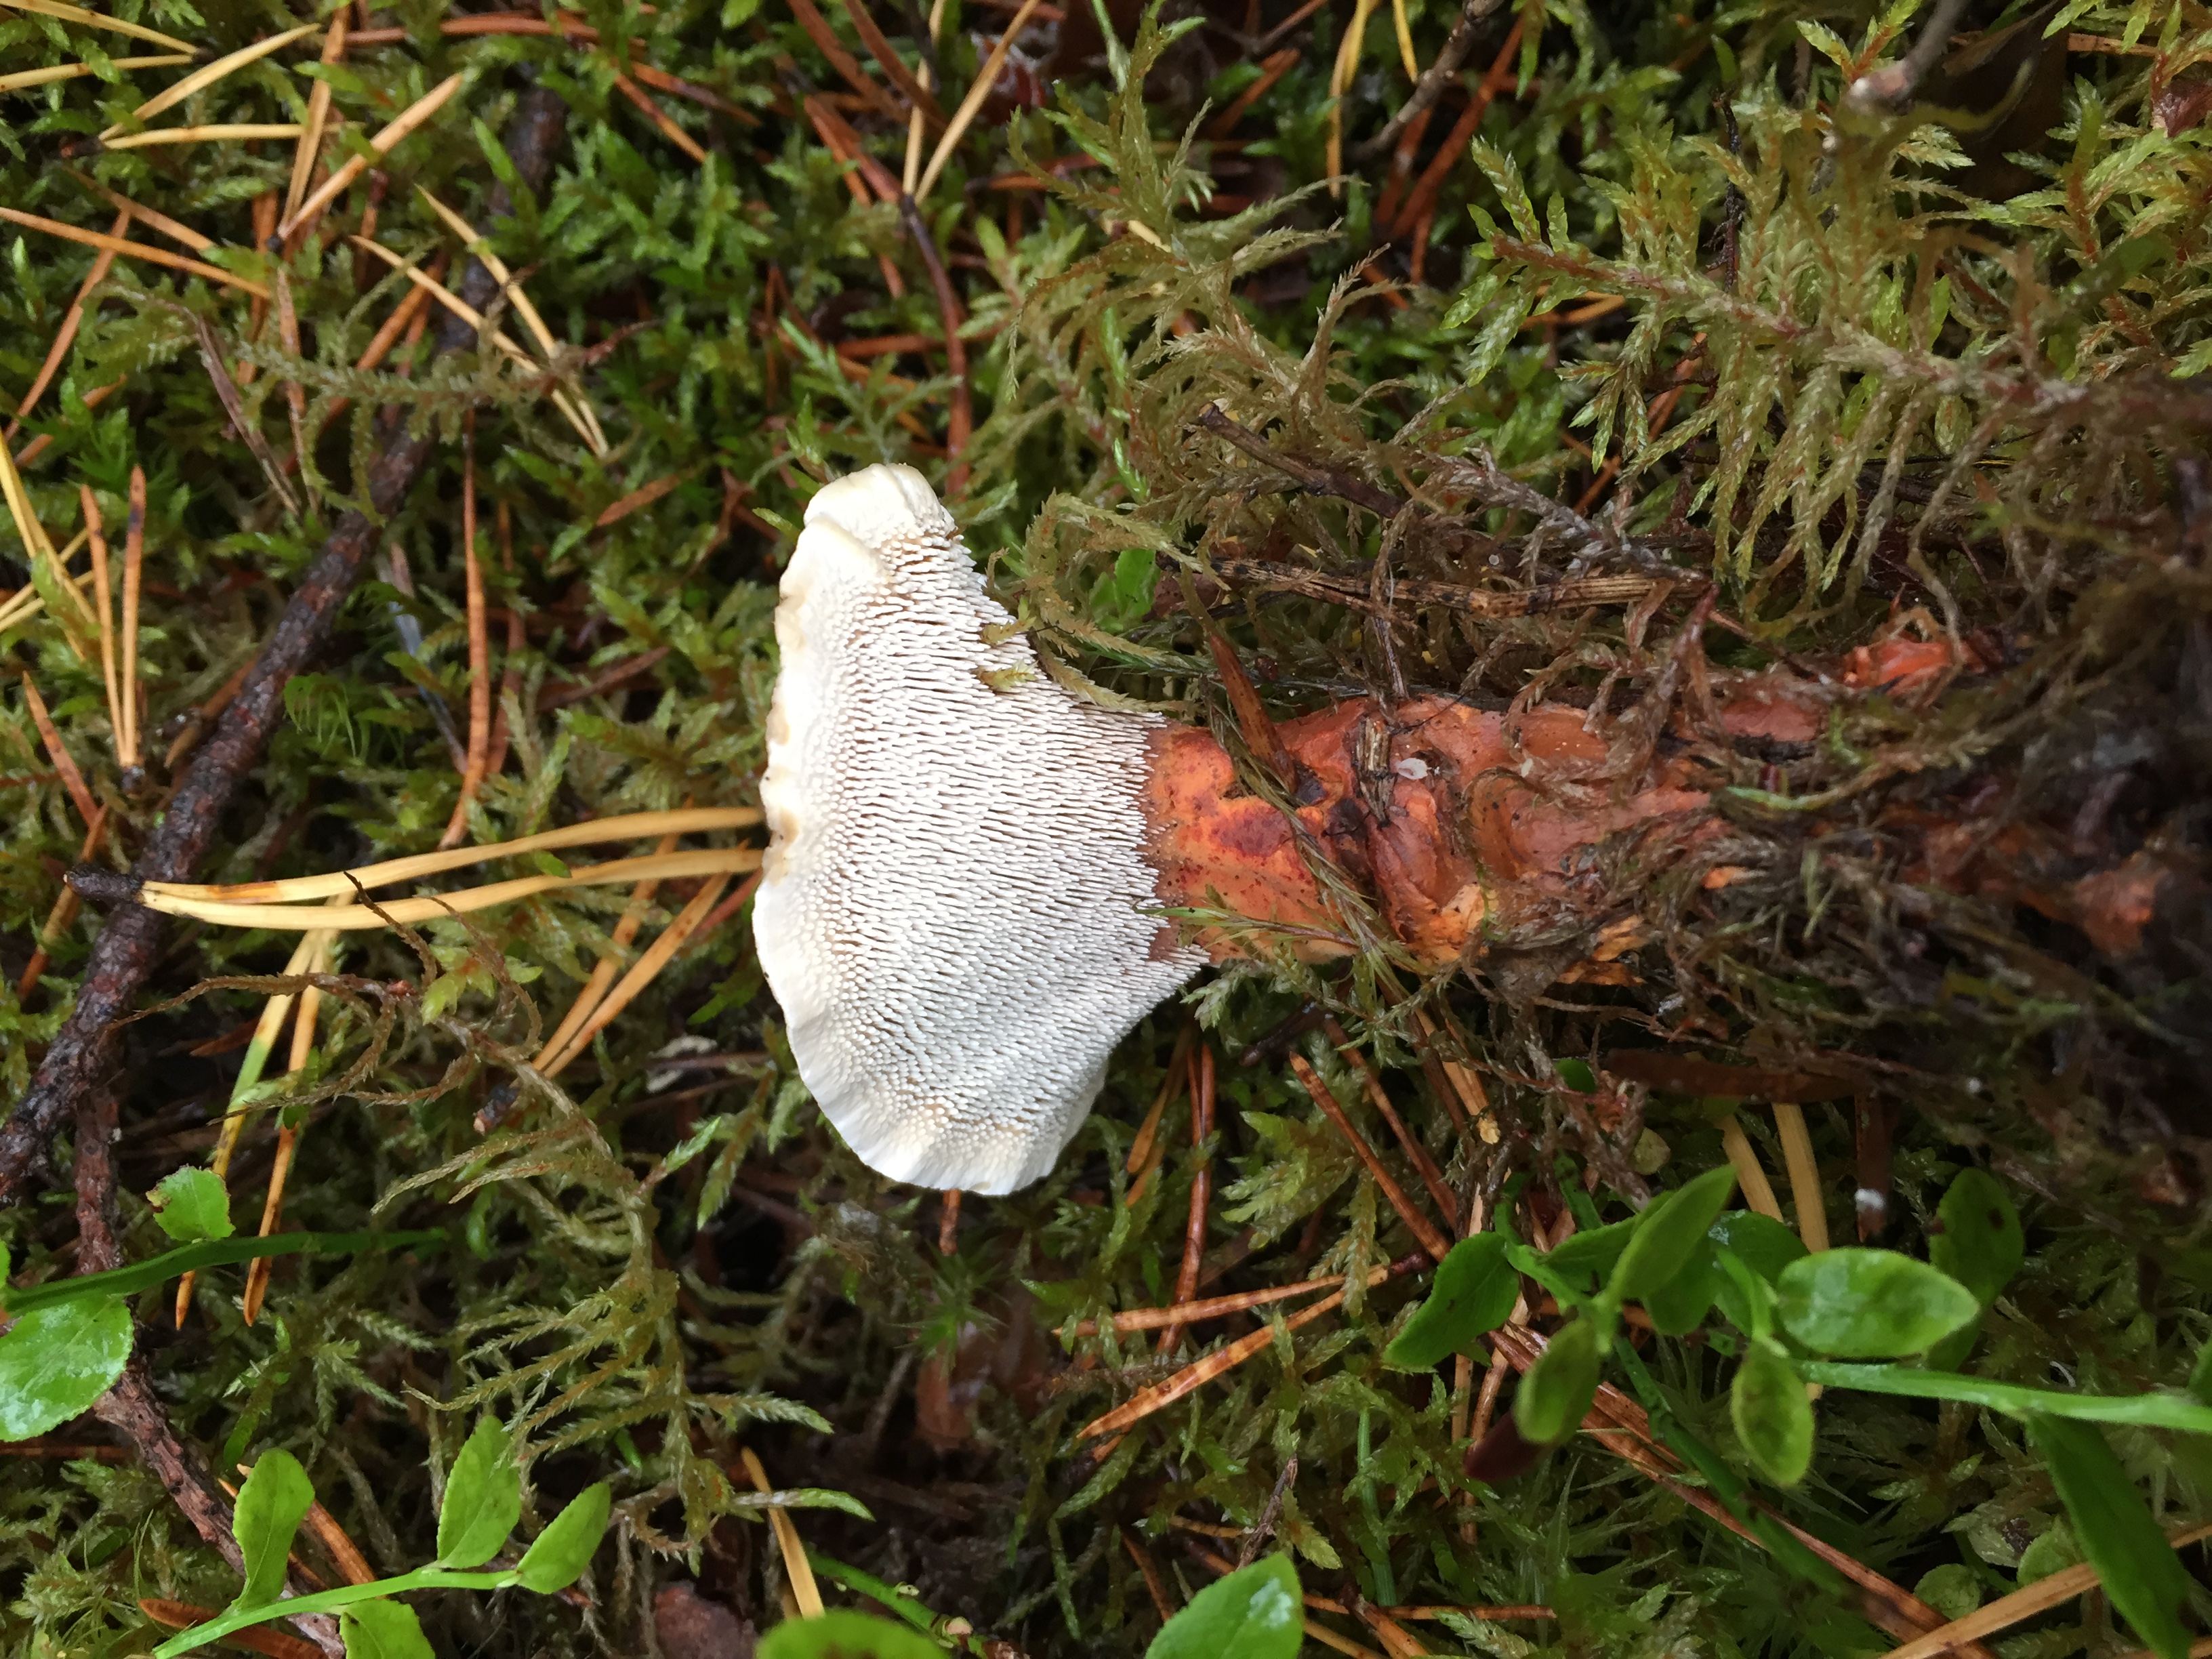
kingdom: Fungi
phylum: Basidiomycota
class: Agaricomycetes
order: Thelephorales
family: Bankeraceae
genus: Hydnellum
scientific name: Hydnellum aurantiacum
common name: Orange tooth
